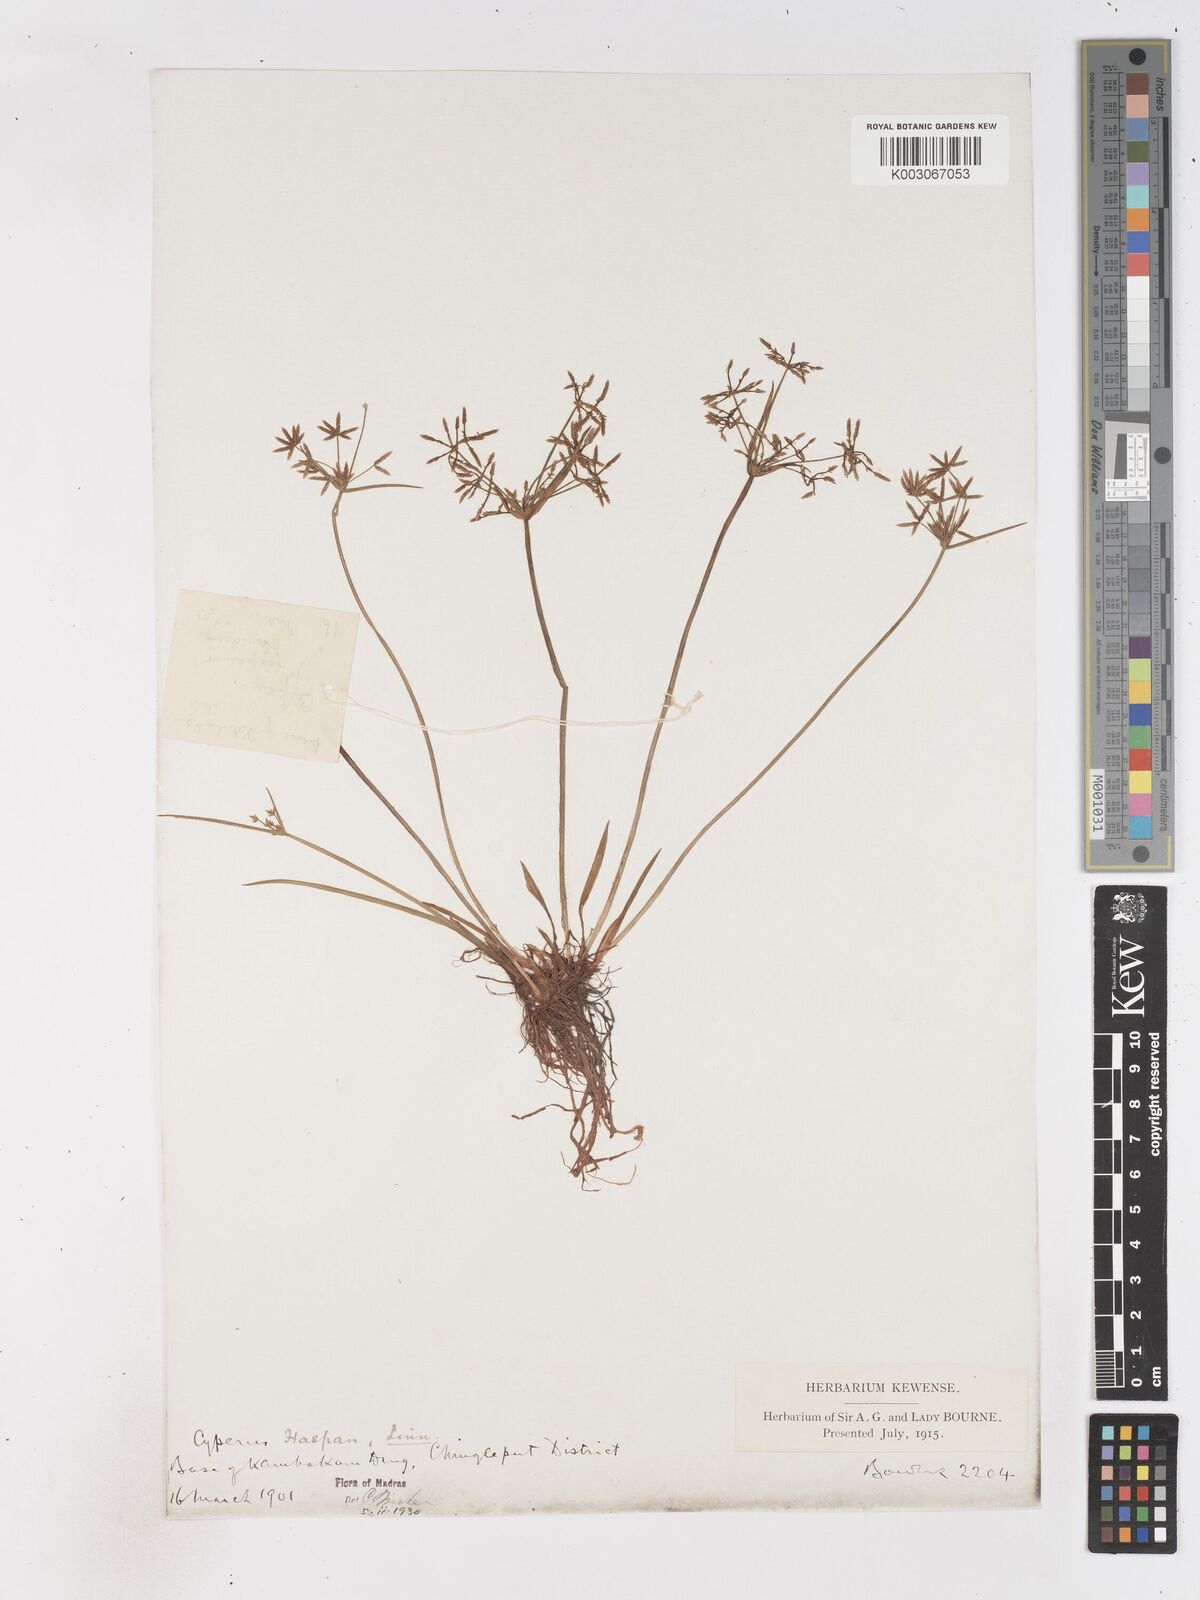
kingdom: Plantae
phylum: Tracheophyta
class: Liliopsida
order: Poales
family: Cyperaceae
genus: Cyperus
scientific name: Cyperus haspan
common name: Haspan flatsedge
